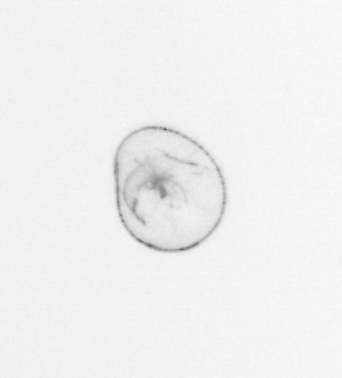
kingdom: Chromista
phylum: Myzozoa
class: Dinophyceae
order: Noctilucales
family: Noctilucaceae
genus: Noctiluca
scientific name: Noctiluca scintillans
